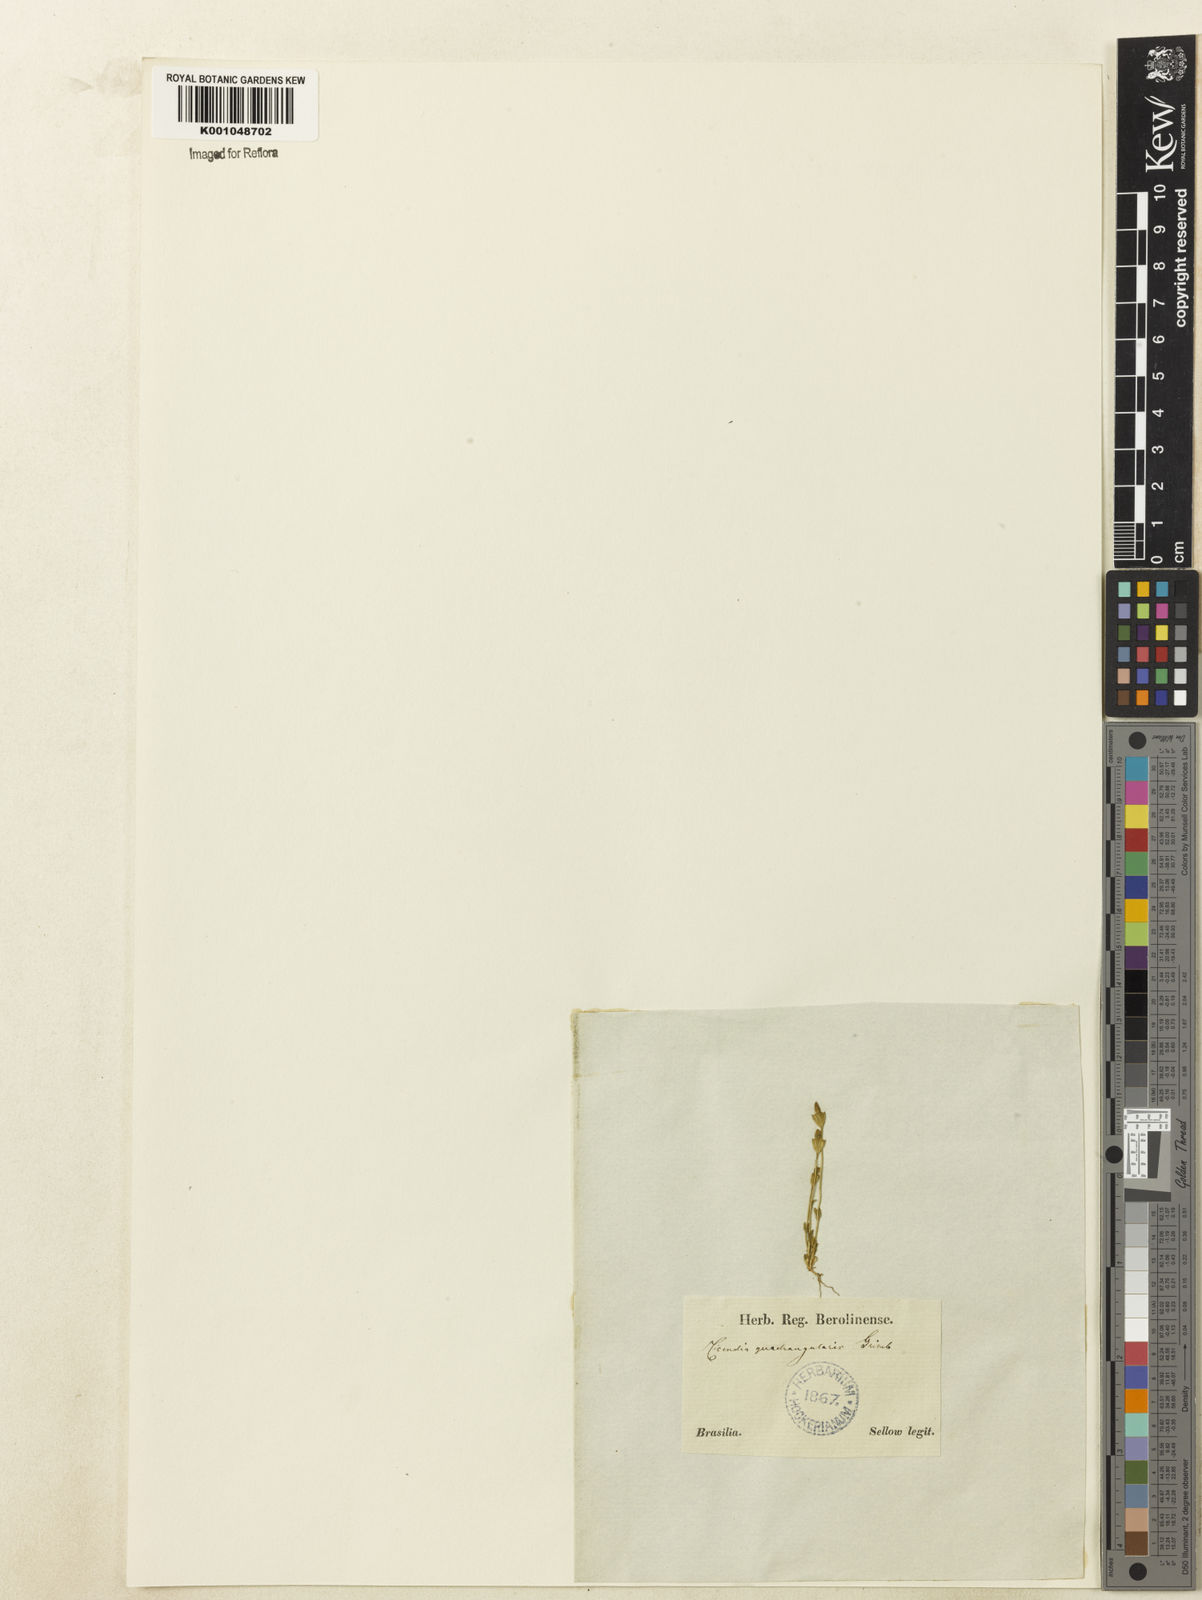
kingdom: Plantae
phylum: Tracheophyta
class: Magnoliopsida
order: Gentianales
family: Gentianaceae
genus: Microcala
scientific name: Microcala quadrangularis
